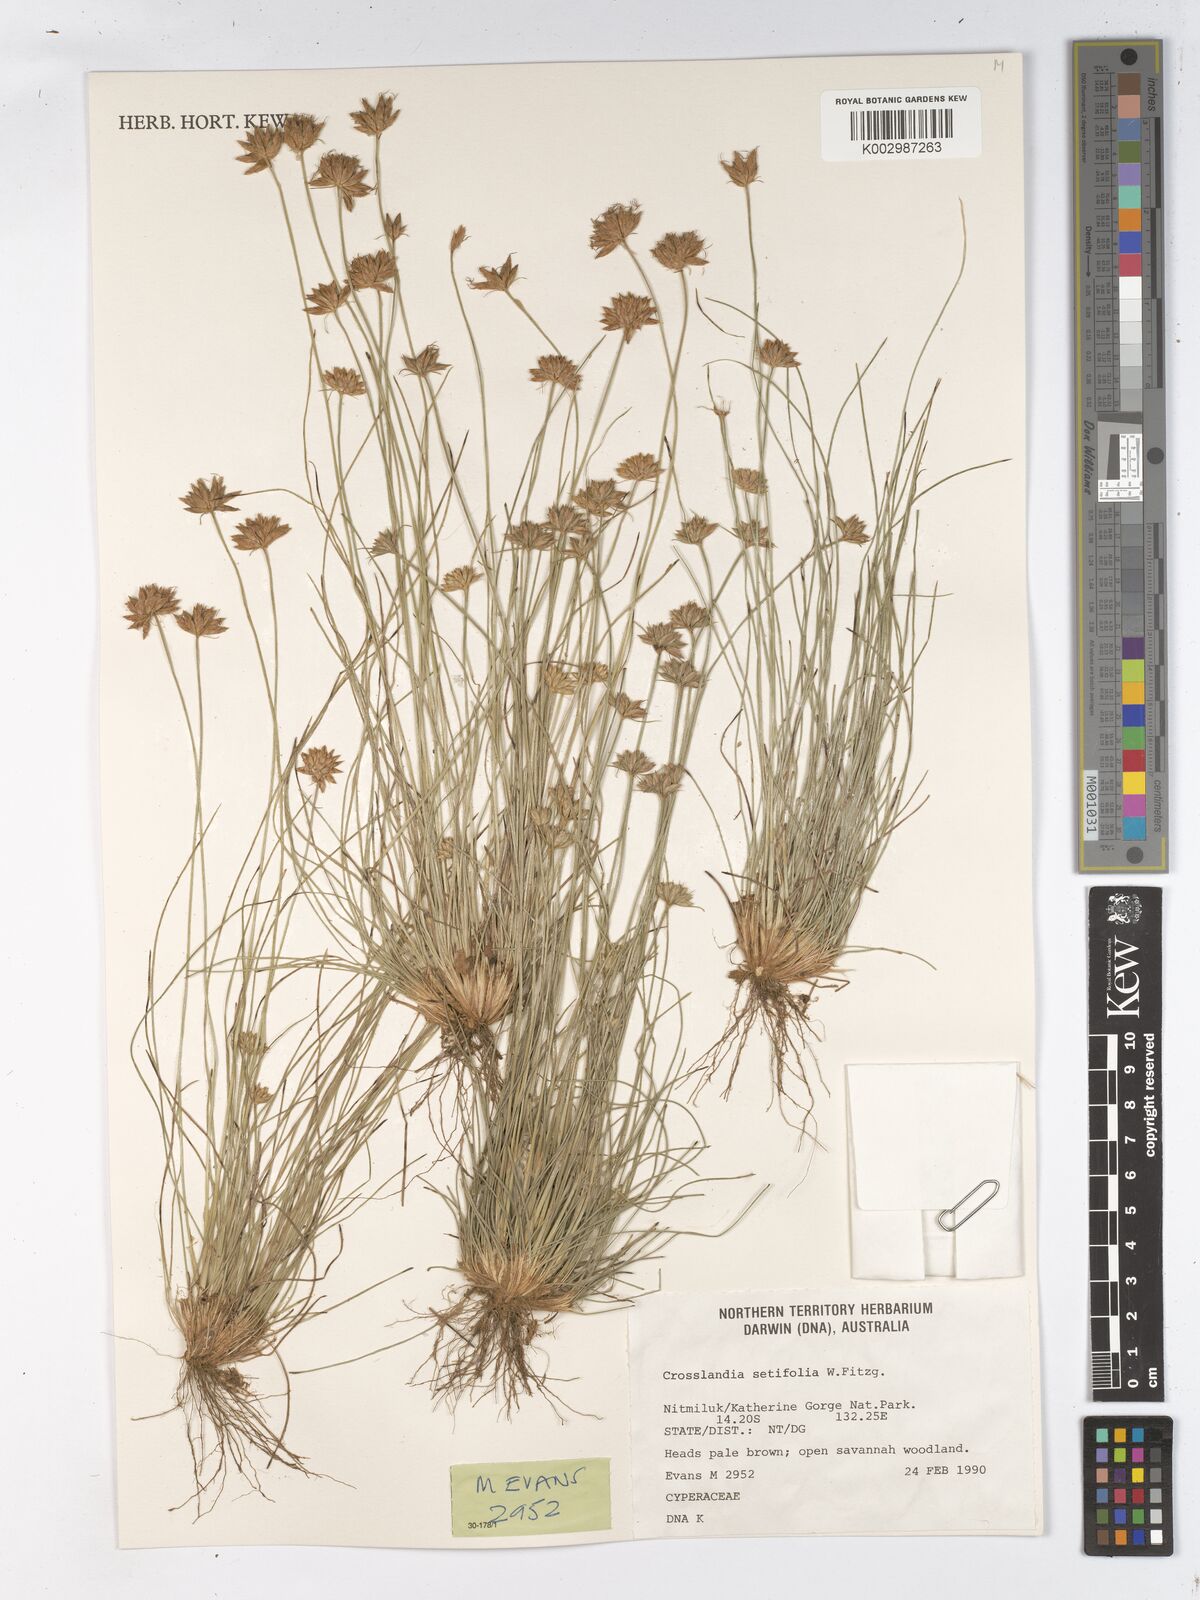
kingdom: Plantae
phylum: Tracheophyta
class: Liliopsida
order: Poales
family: Cyperaceae
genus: Fimbristylis
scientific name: Fimbristylis crosslandii
